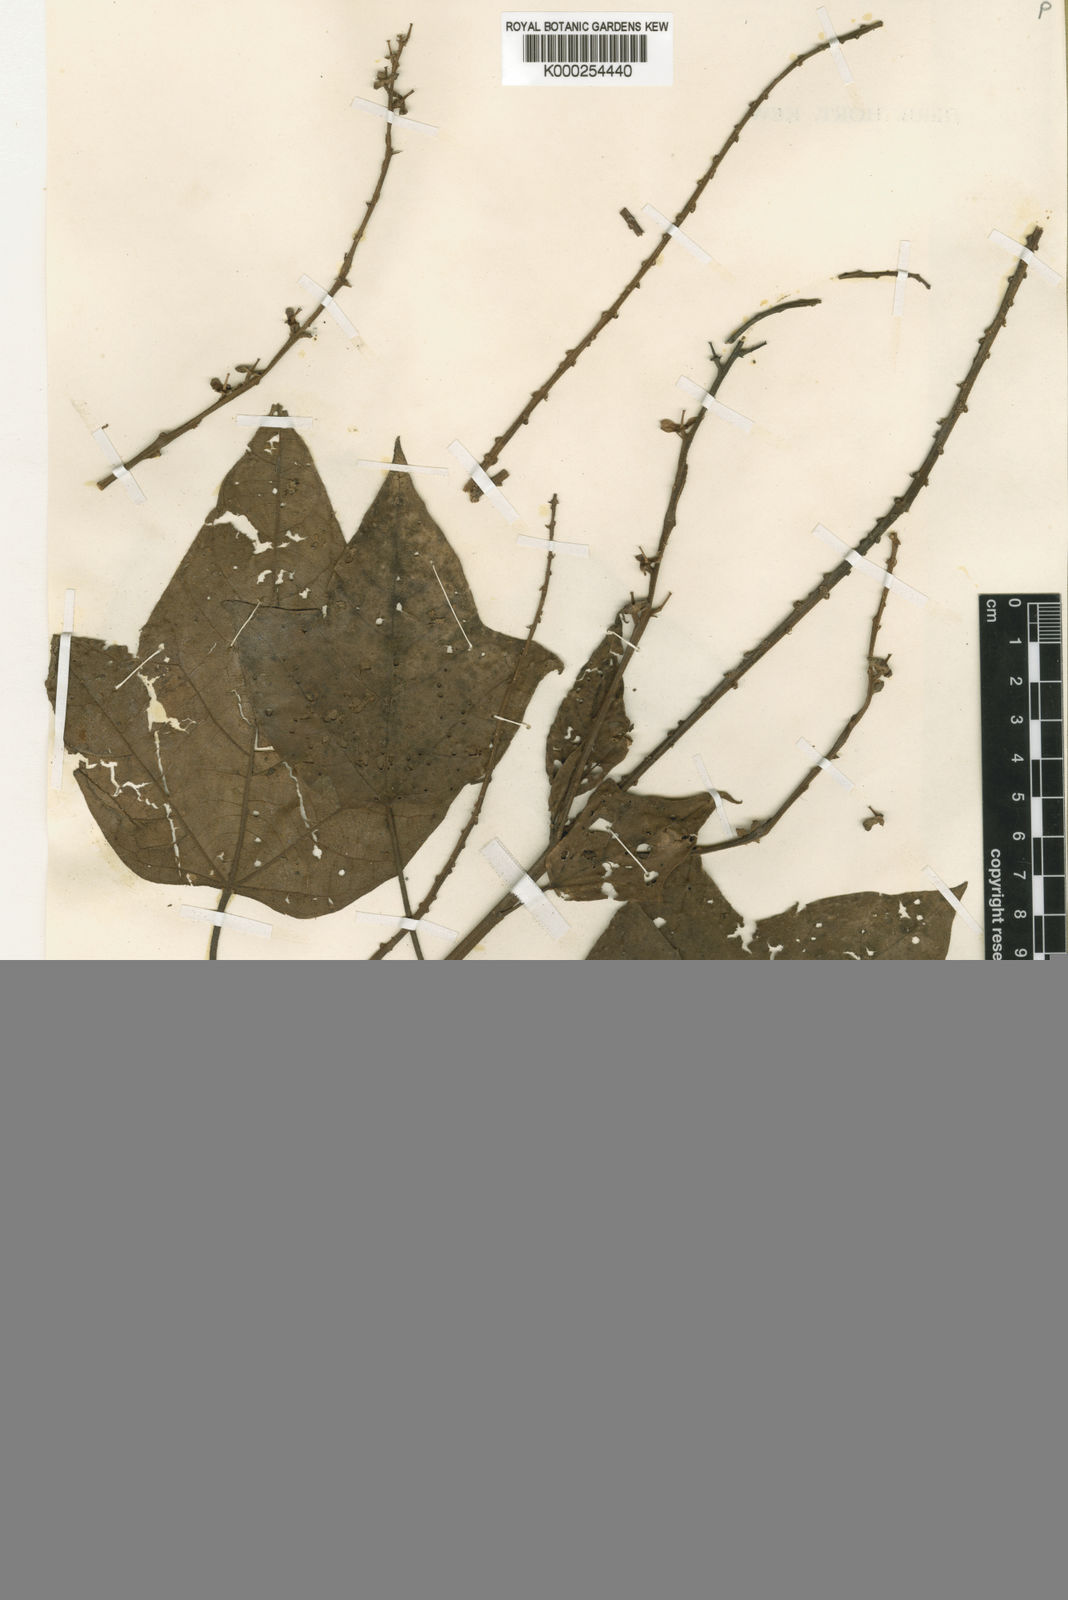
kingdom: Plantae
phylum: Tracheophyta
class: Magnoliopsida
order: Malpighiales
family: Euphorbiaceae
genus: Croton
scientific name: Croton nuntians
